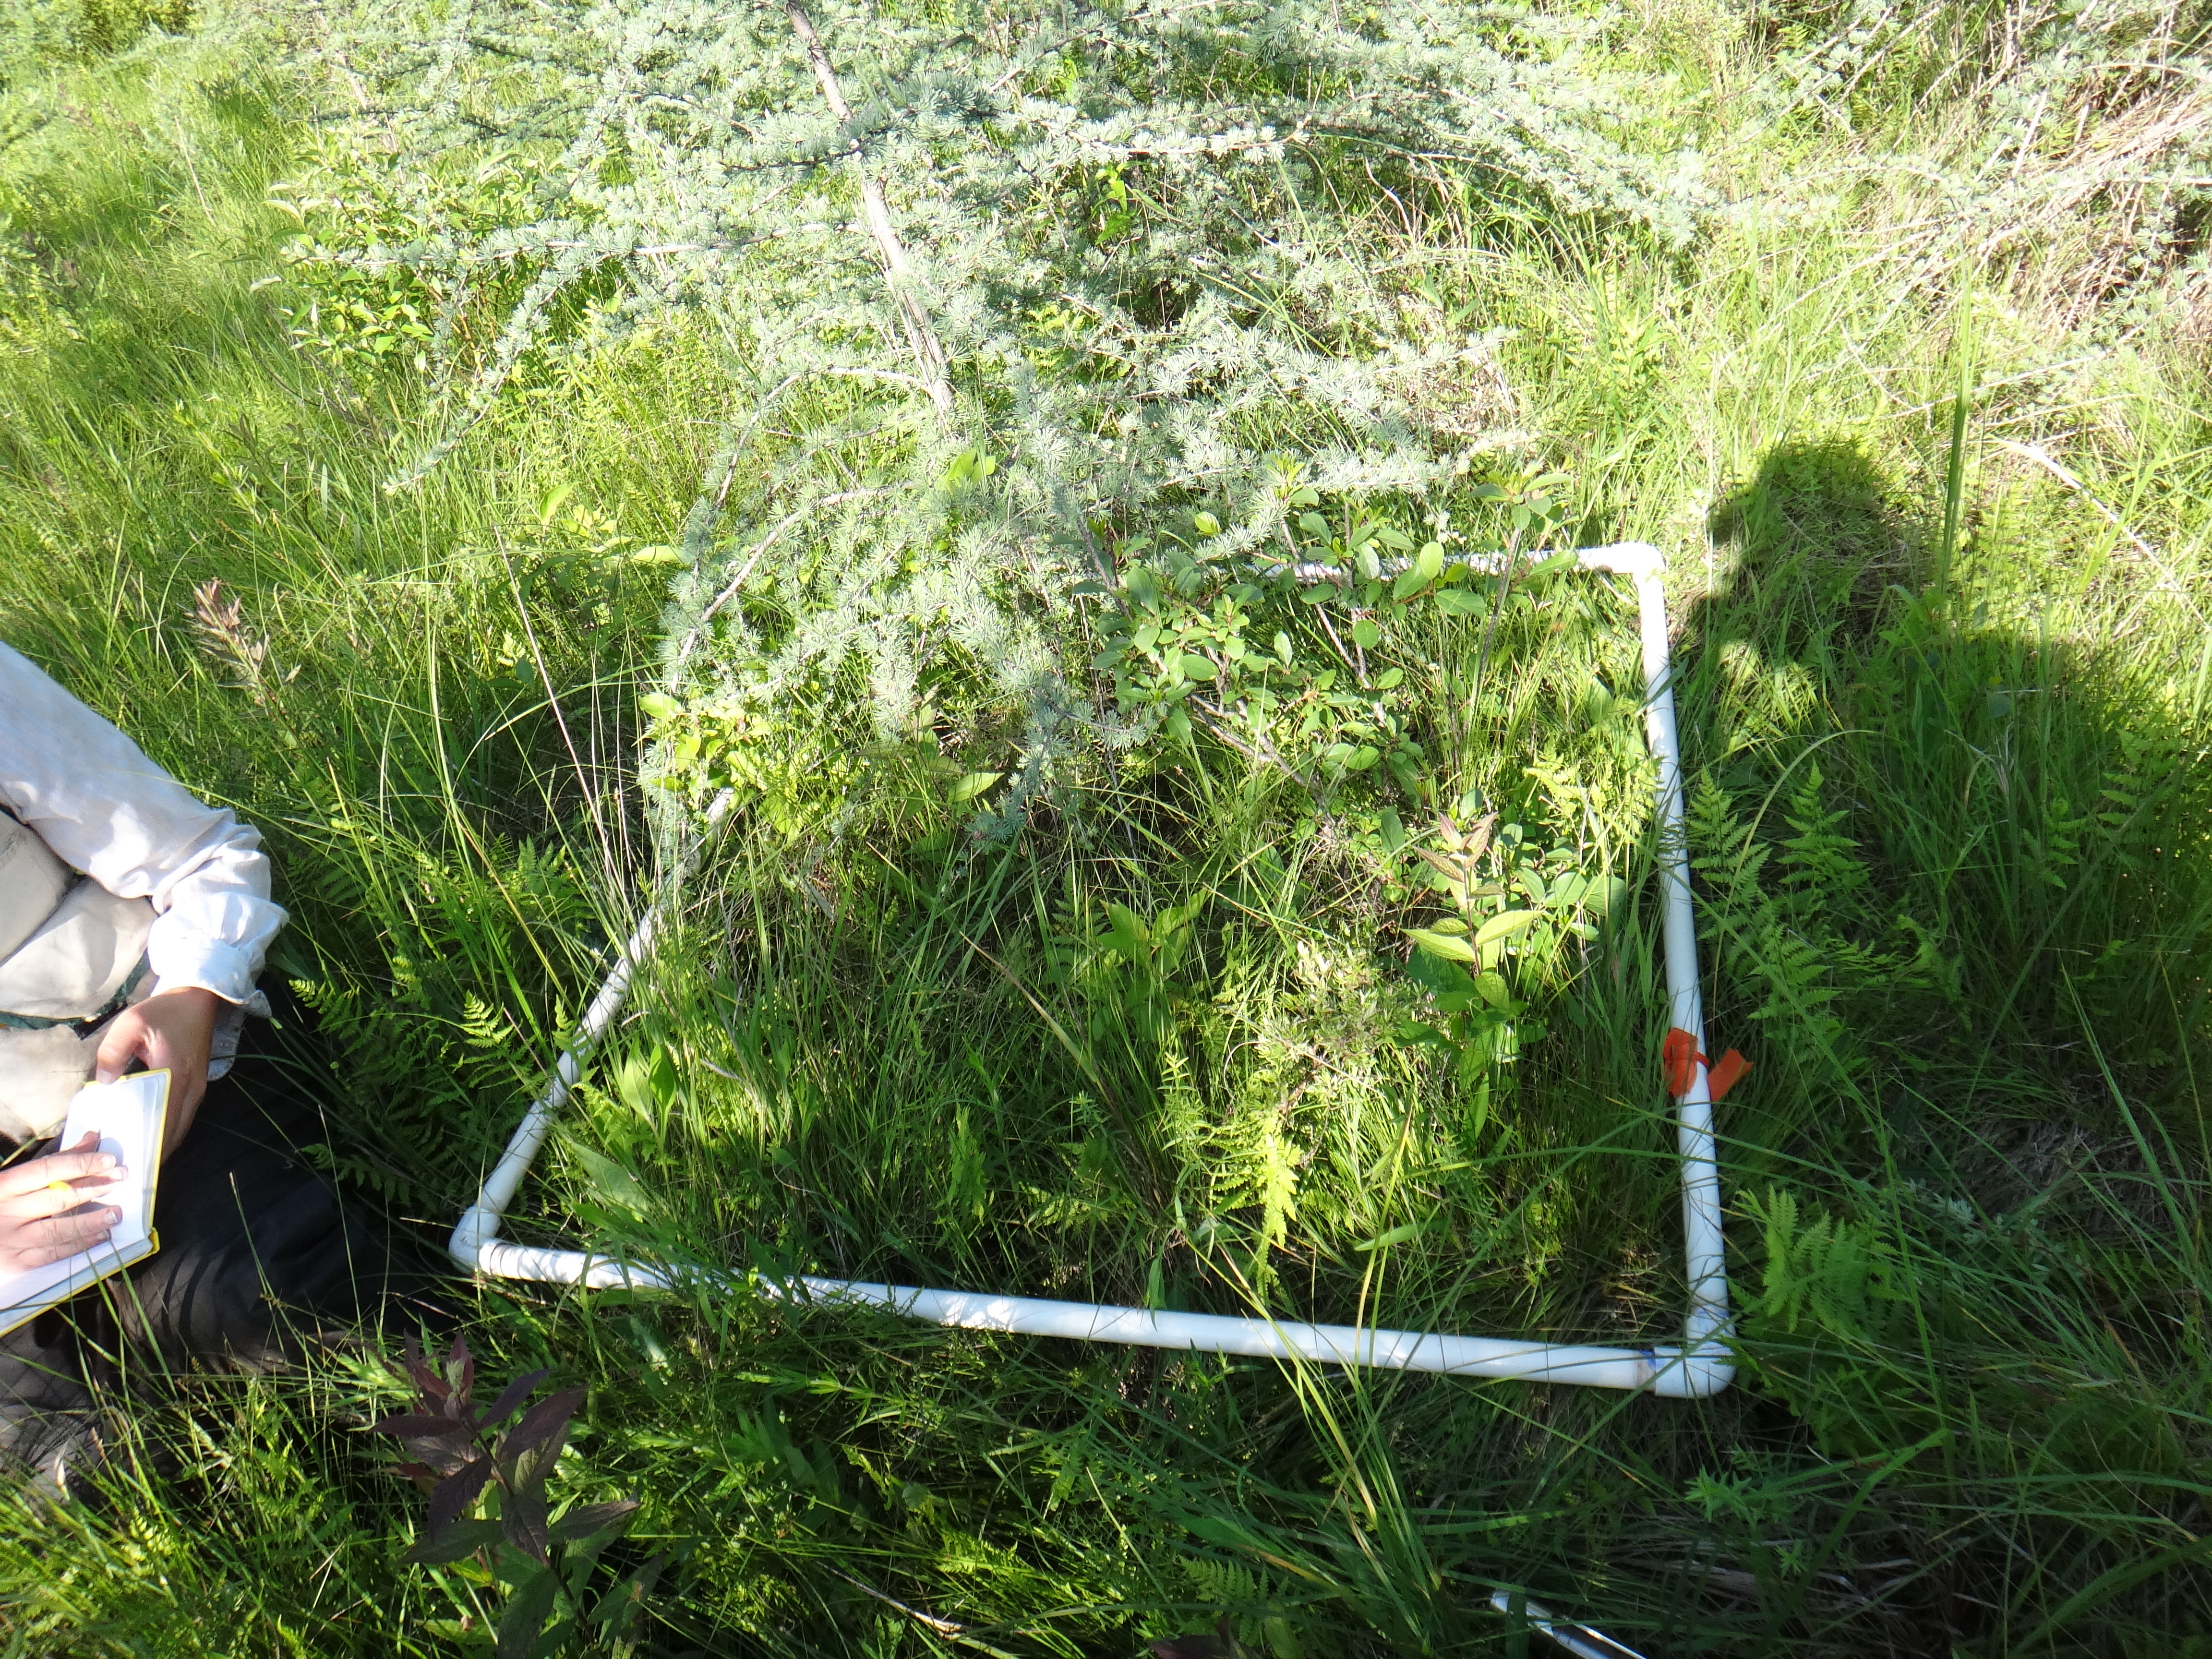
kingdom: Plantae
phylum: Tracheophyta
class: Liliopsida
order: Poales
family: Cyperaceae
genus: Carex
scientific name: Carex aquatilis
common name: Water sedge
